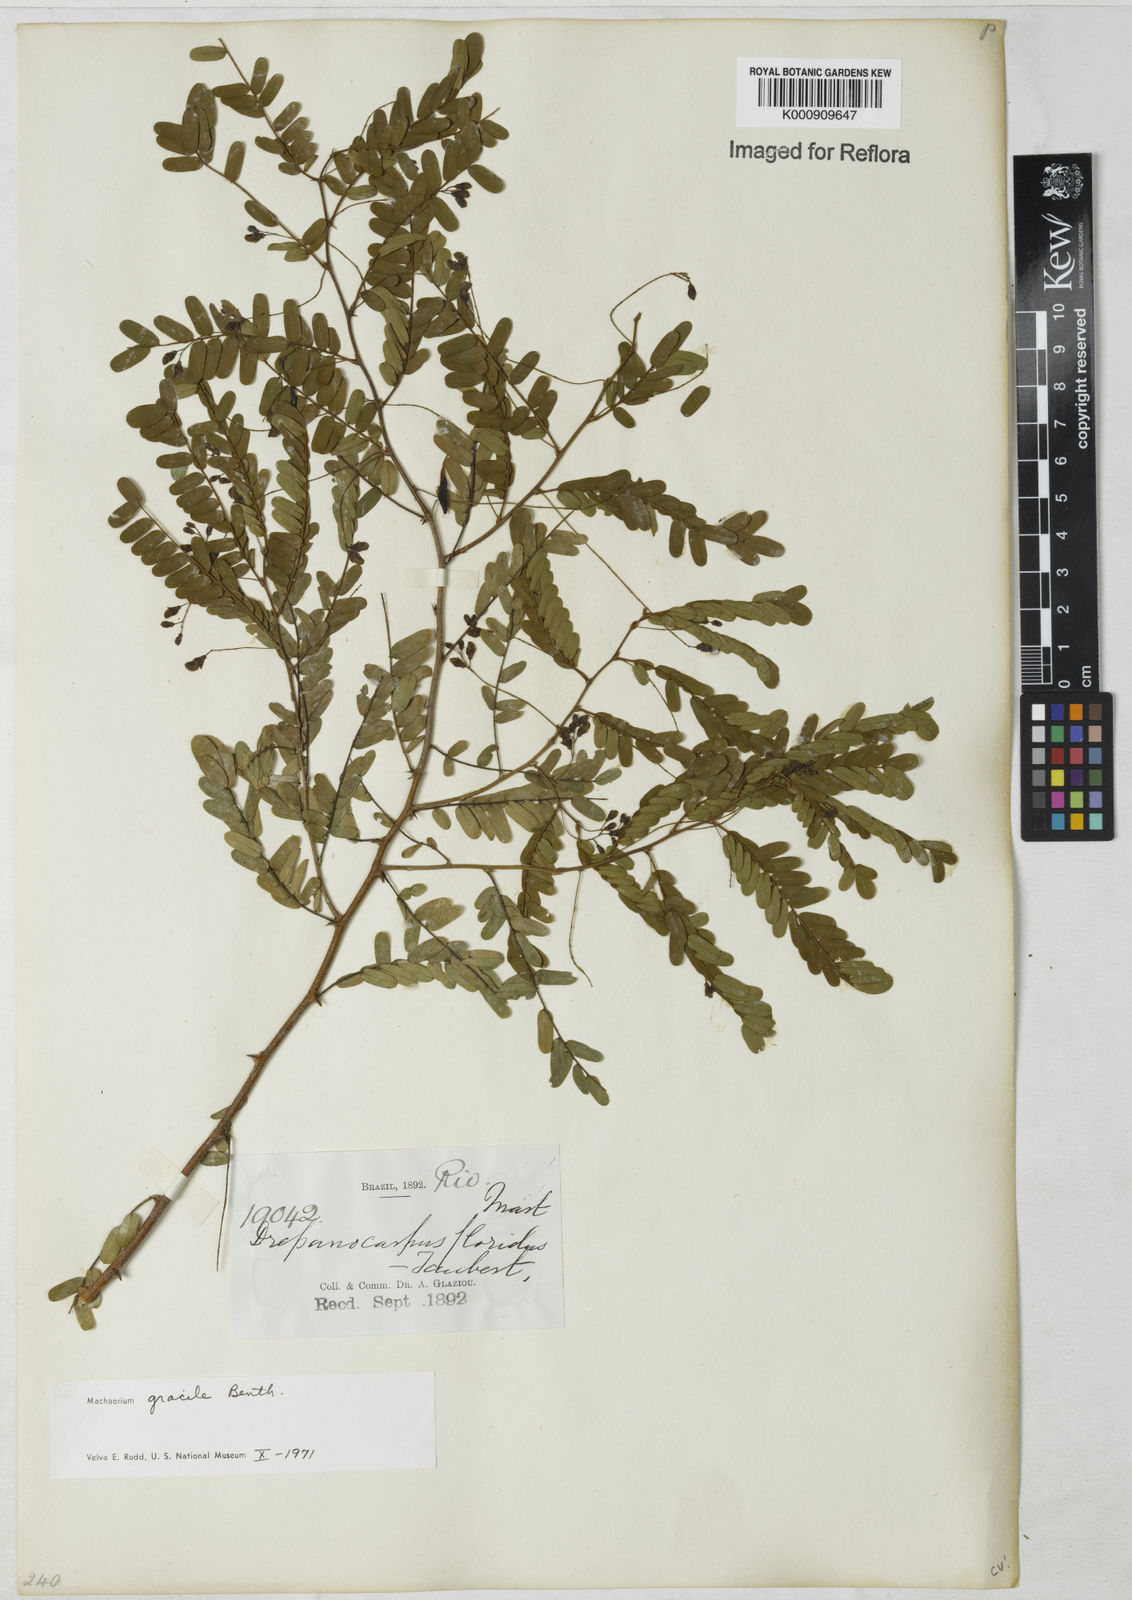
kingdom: Plantae
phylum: Tracheophyta
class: Magnoliopsida
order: Fabales
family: Fabaceae
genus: Machaerium
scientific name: Machaerium gracile
